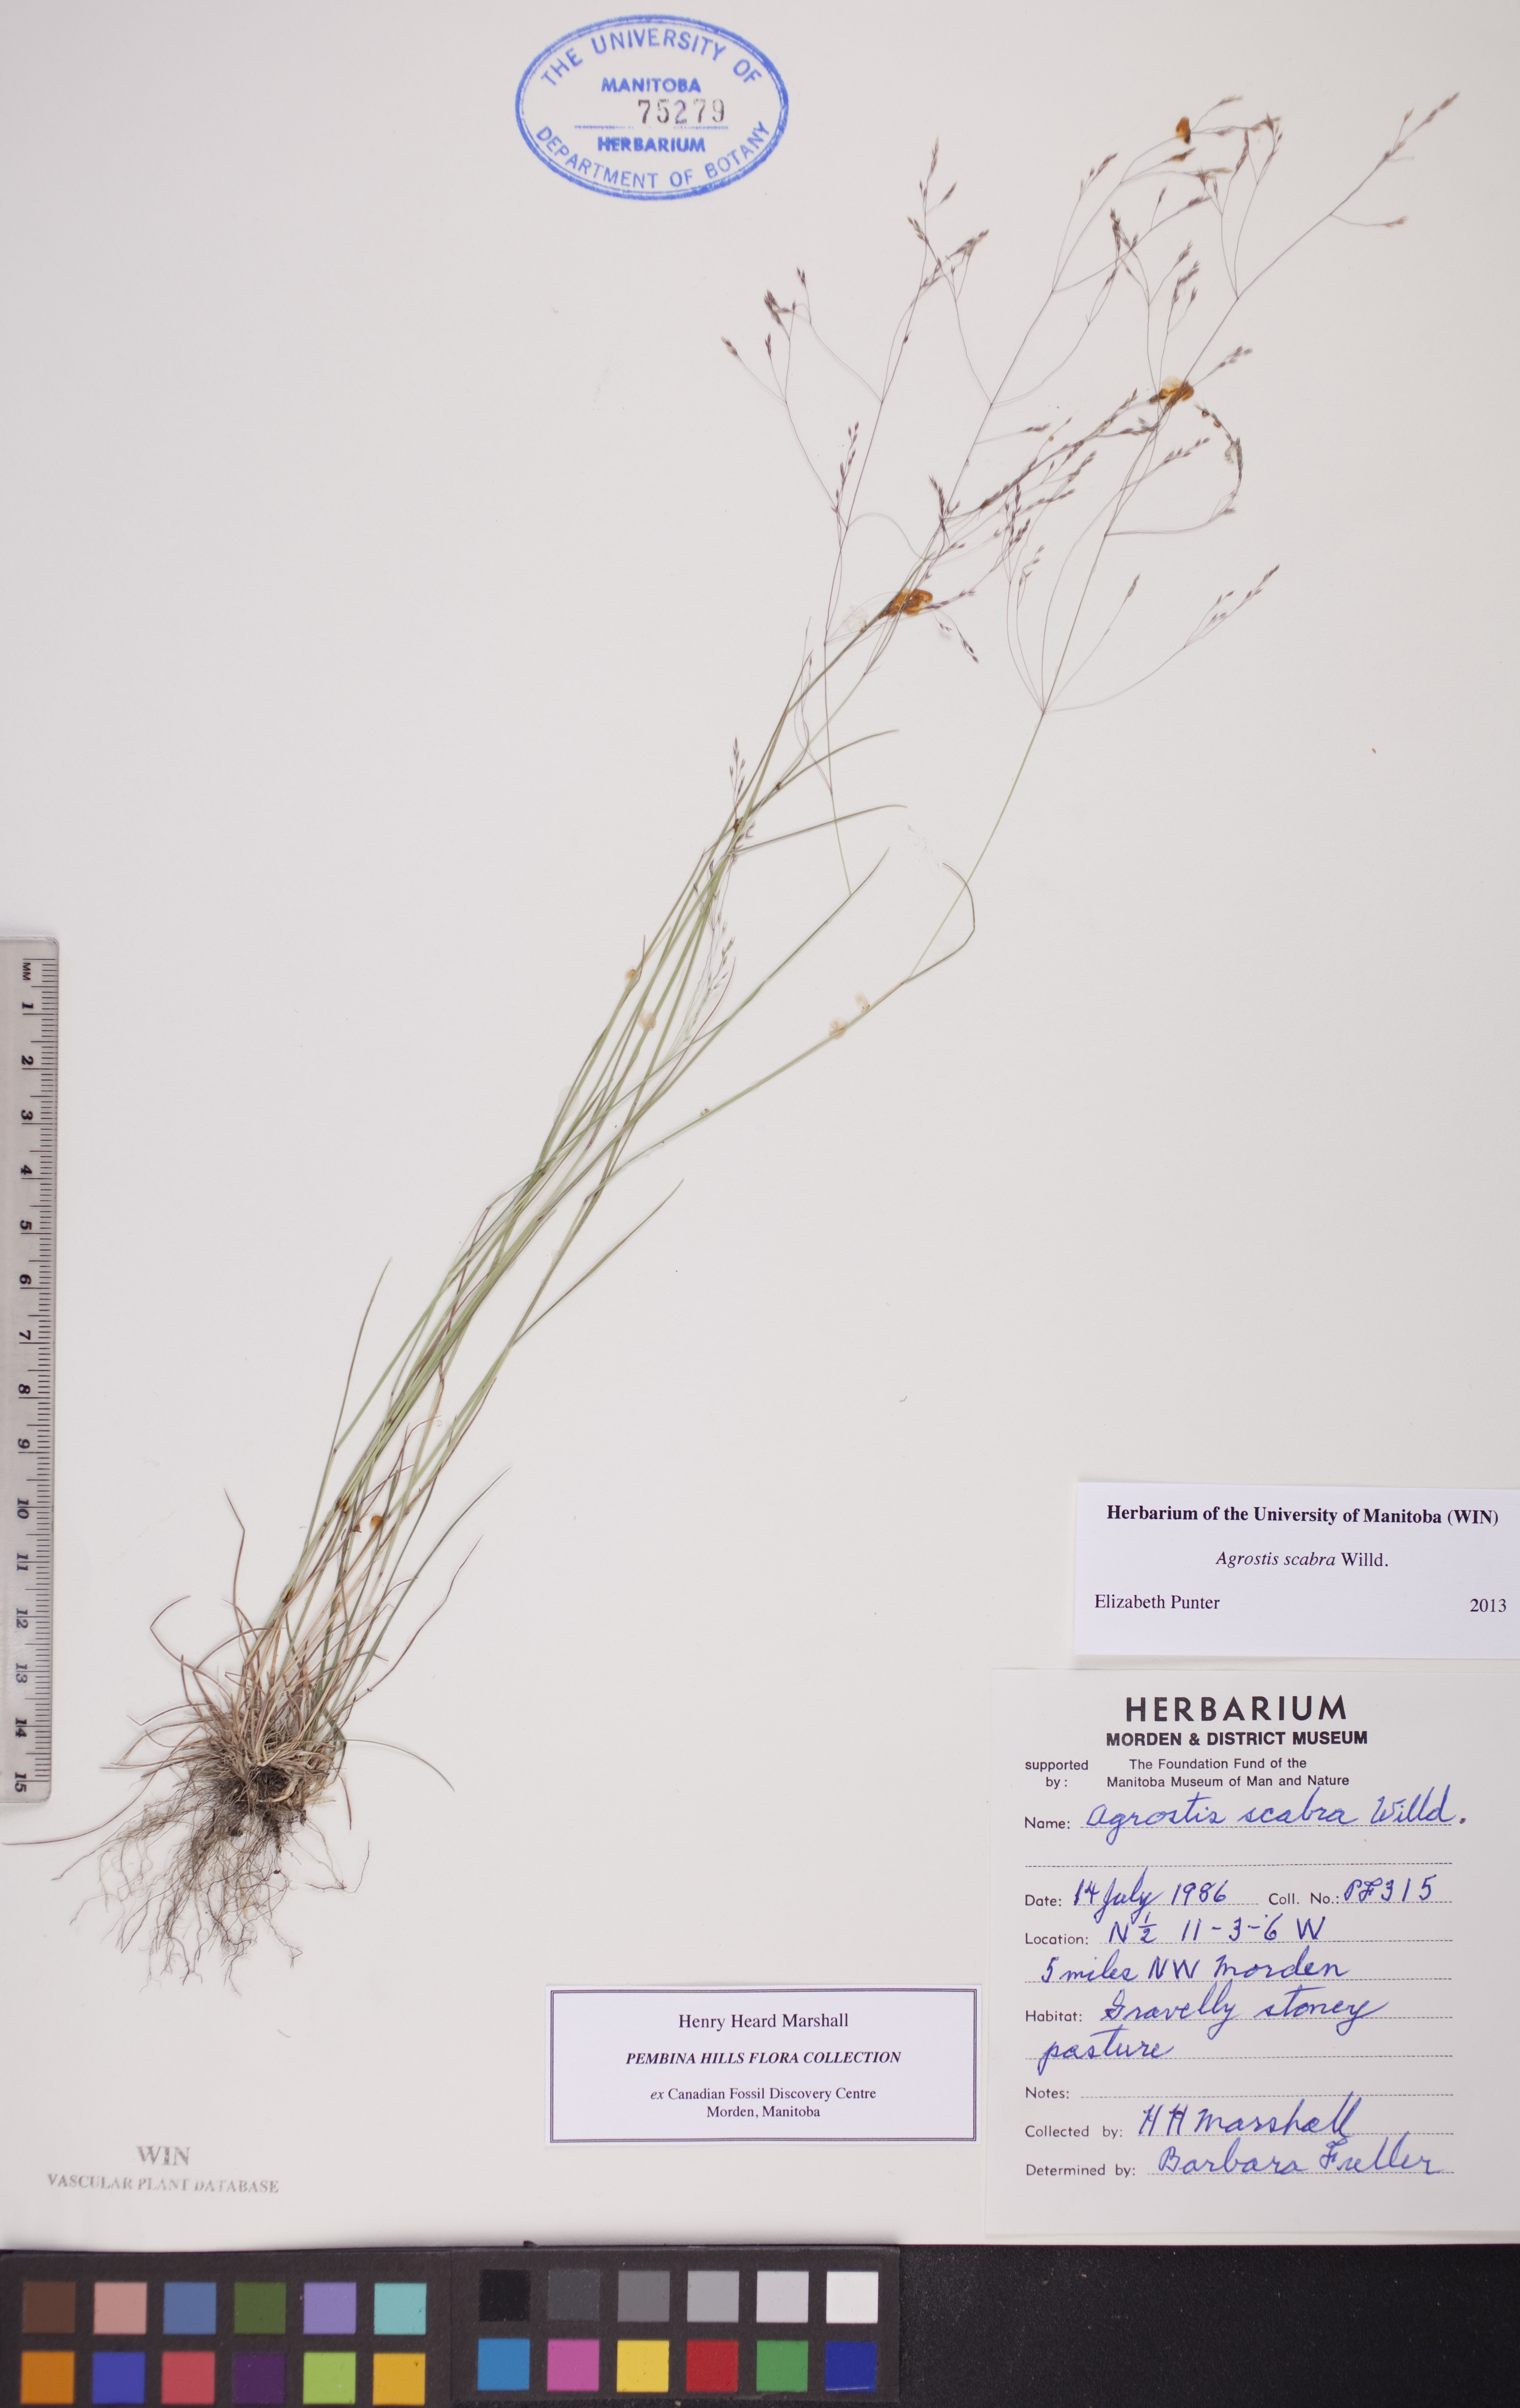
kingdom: Plantae
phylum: Tracheophyta
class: Liliopsida
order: Poales
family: Poaceae
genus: Agrostis
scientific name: Agrostis scabra
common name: Rough bent
